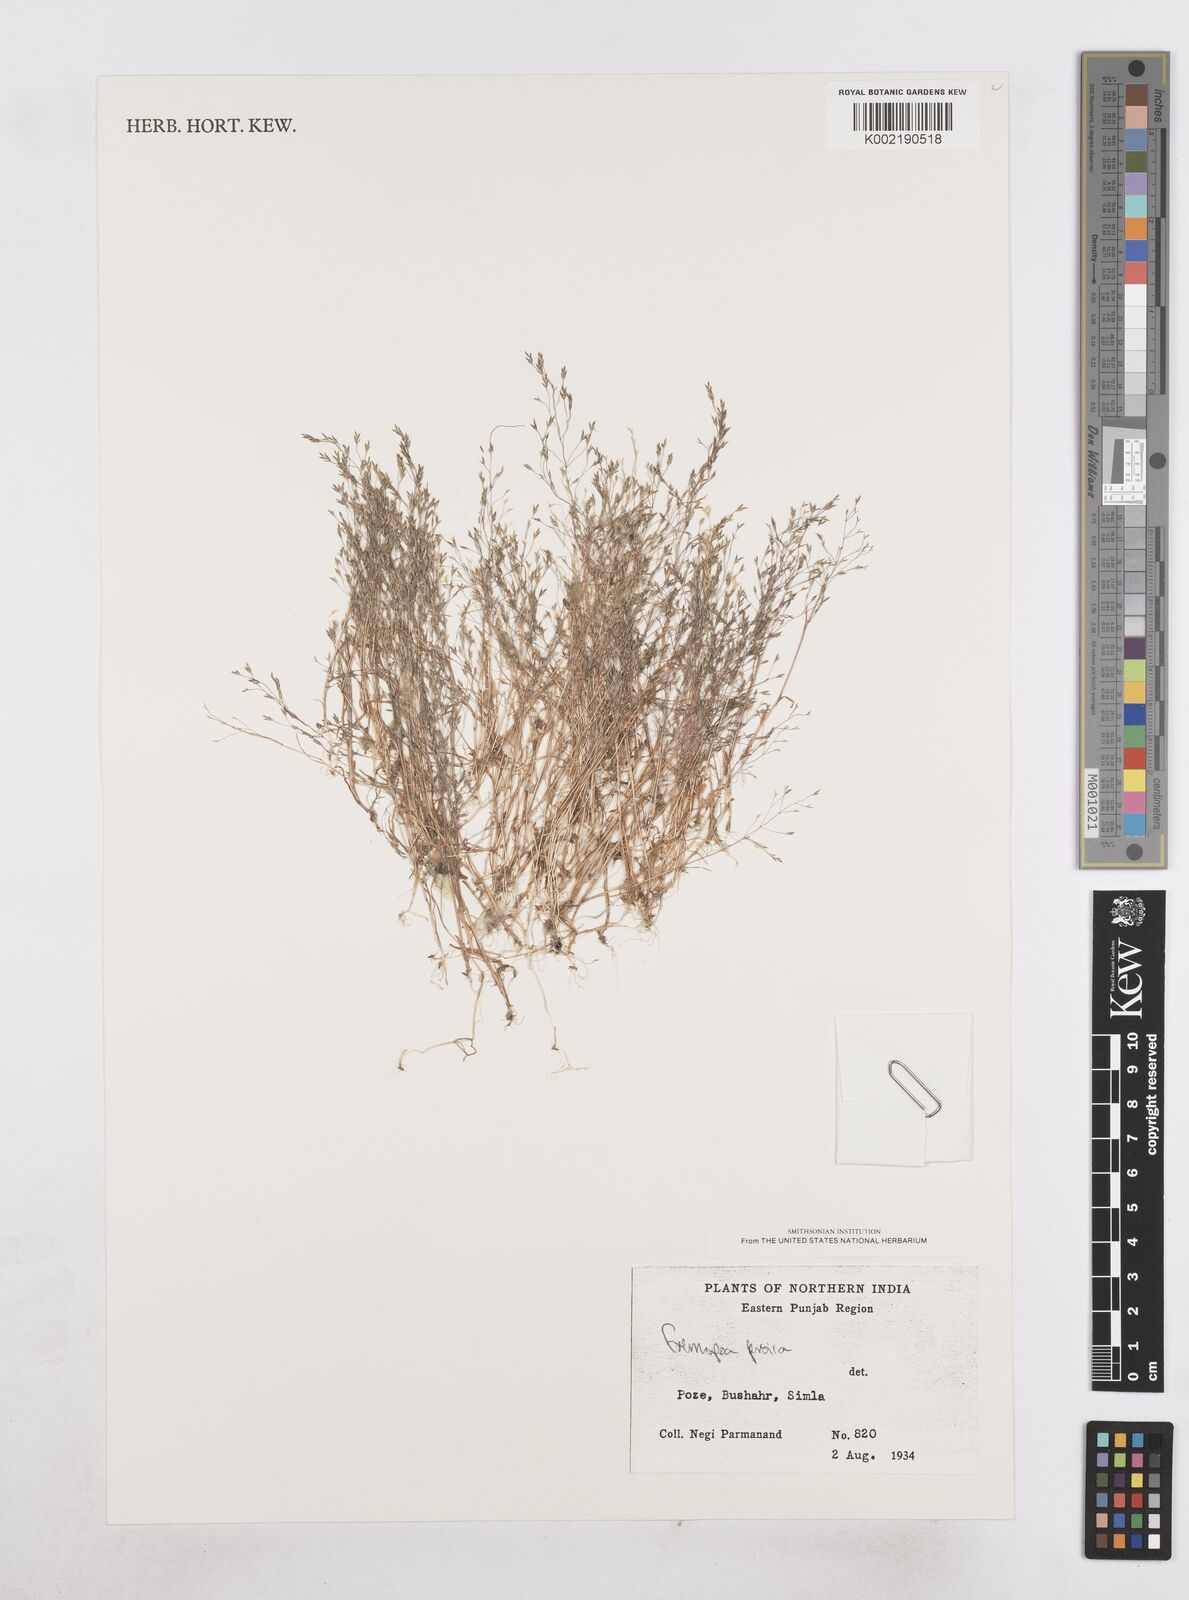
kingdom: Plantae
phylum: Tracheophyta
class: Liliopsida
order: Poales
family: Poaceae
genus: Poa
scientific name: Poa persica
